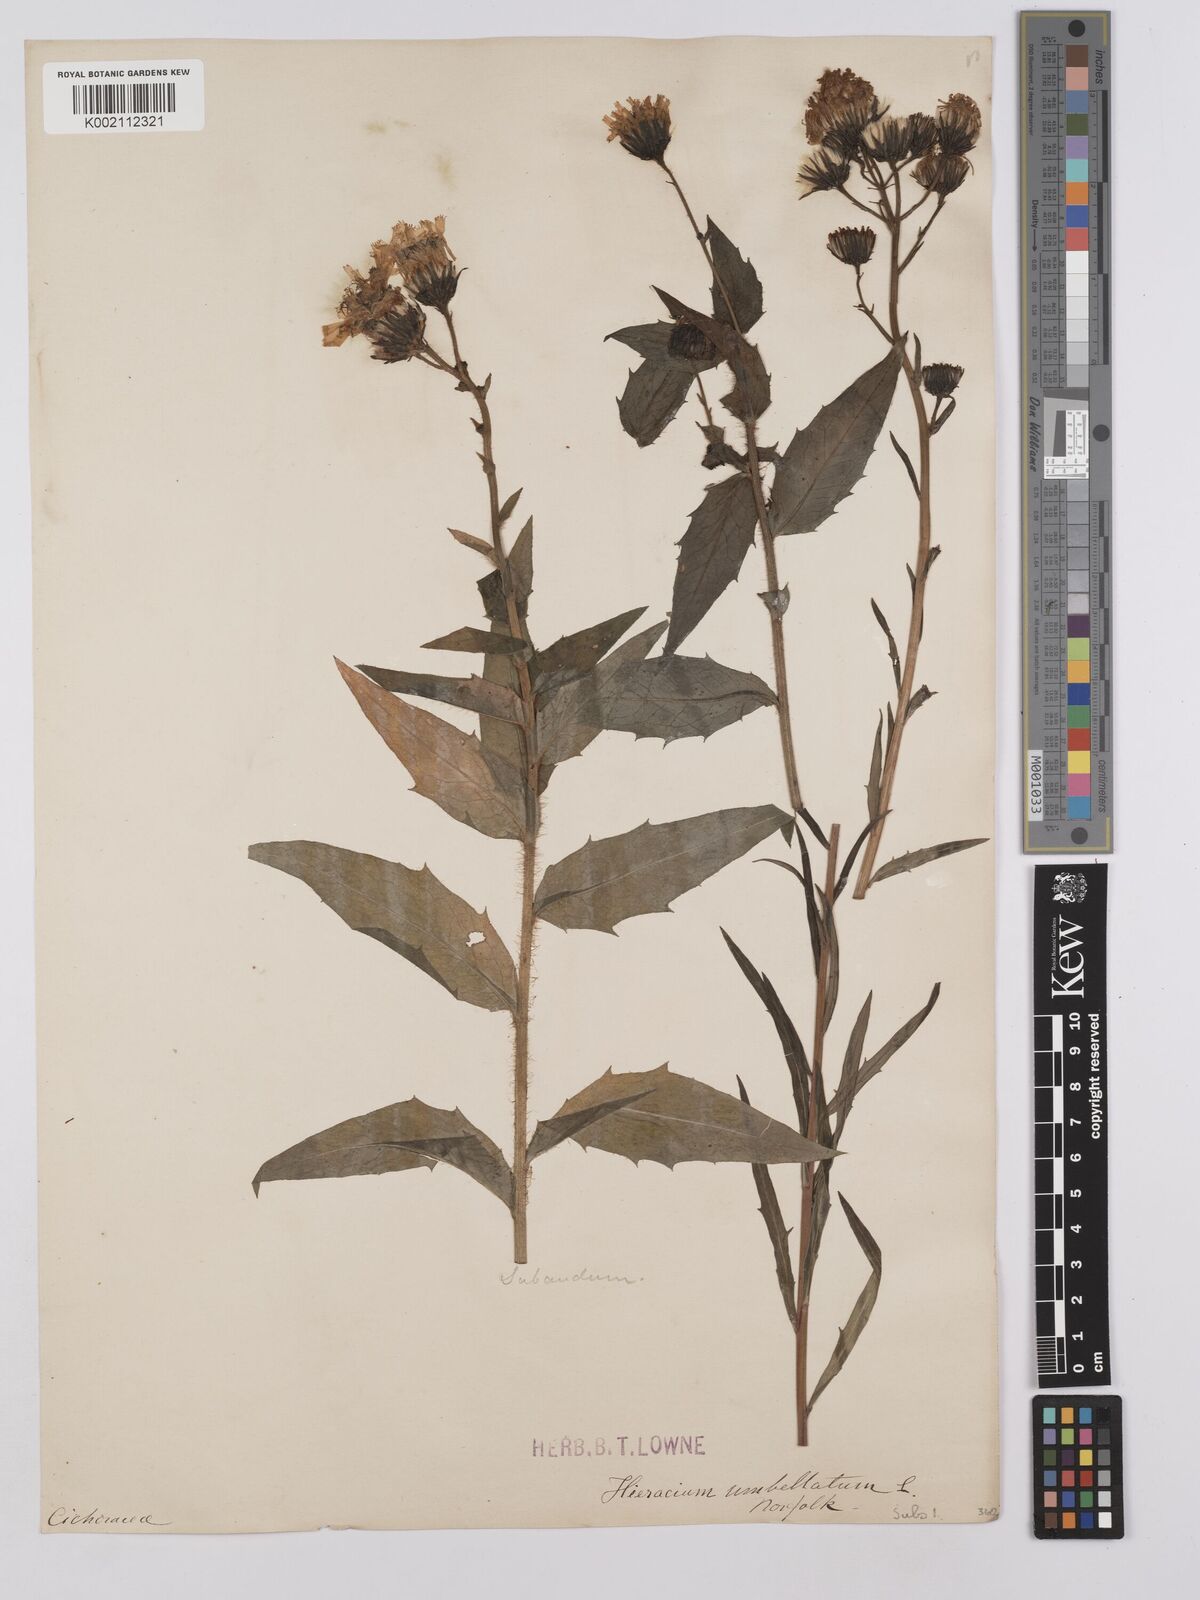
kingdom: Plantae
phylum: Tracheophyta
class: Magnoliopsida
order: Asterales
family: Asteraceae
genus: Hieracium
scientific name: Hieracium umbellatum
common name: Northern hawkweed
